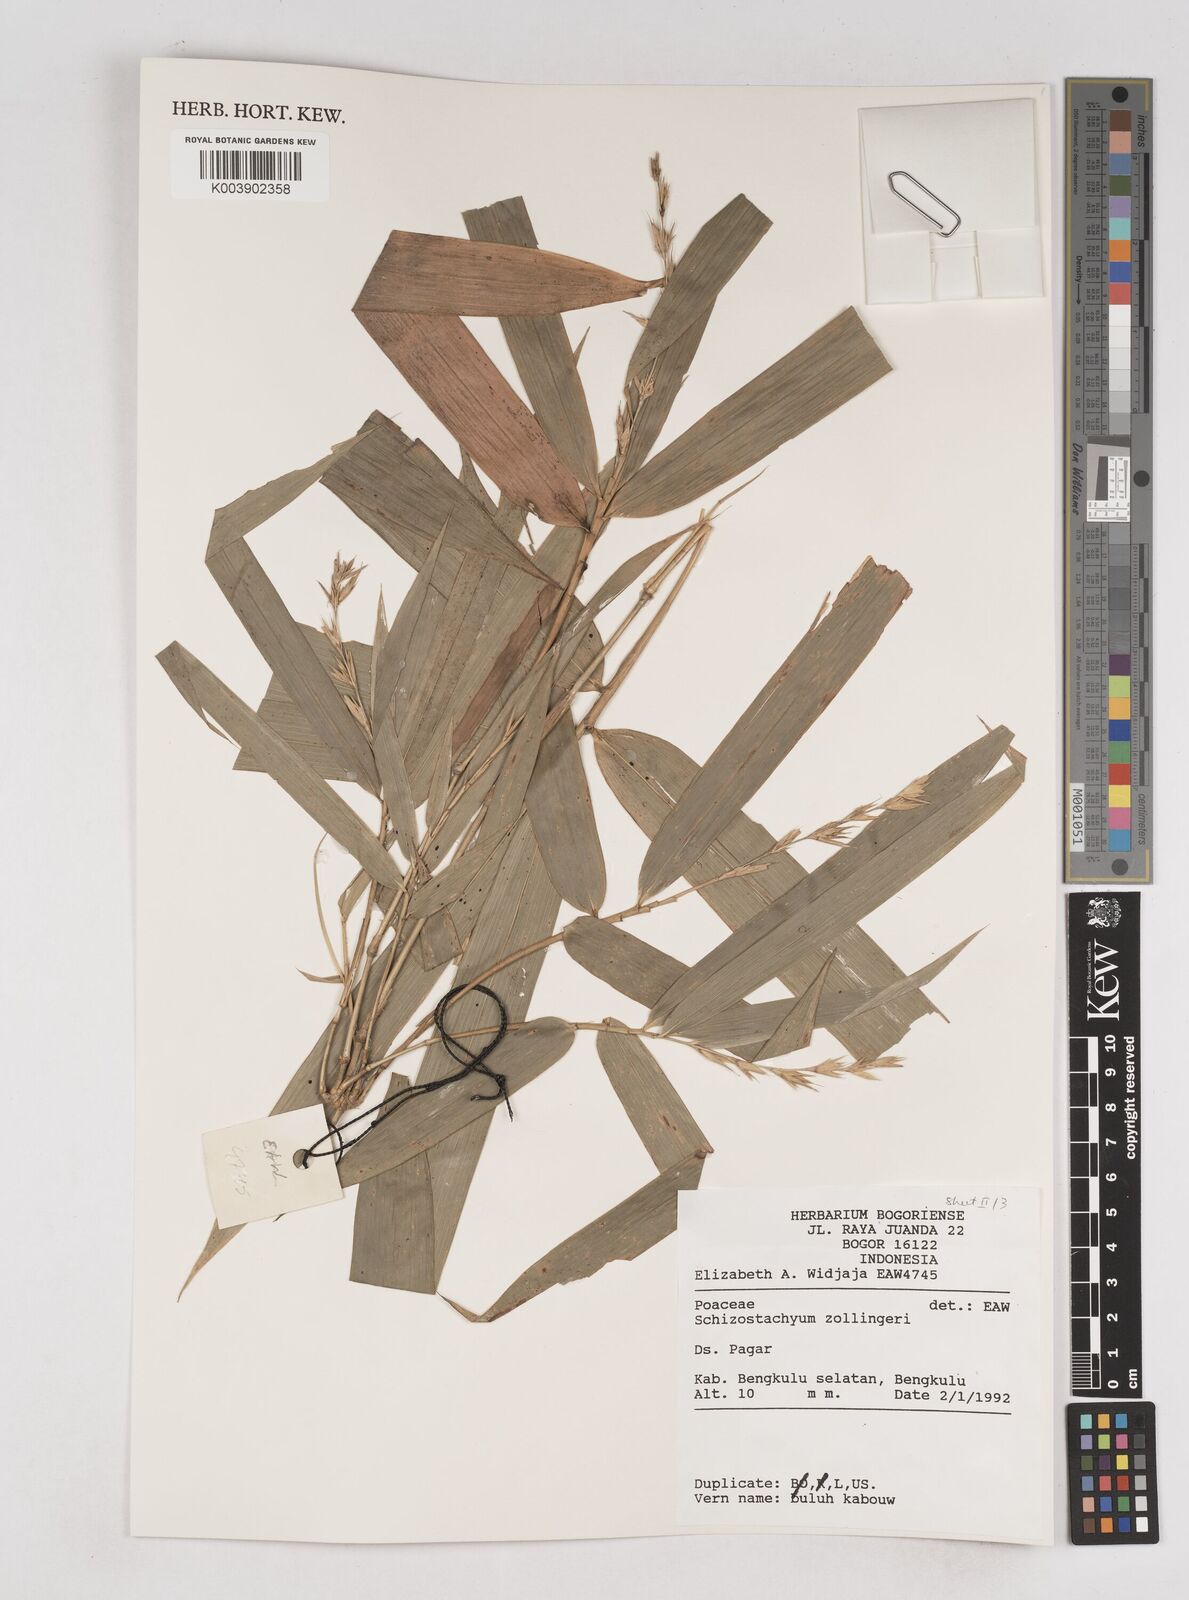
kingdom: Plantae
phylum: Tracheophyta
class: Liliopsida
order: Poales
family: Poaceae
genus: Schizostachyum
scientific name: Schizostachyum zollingeri
